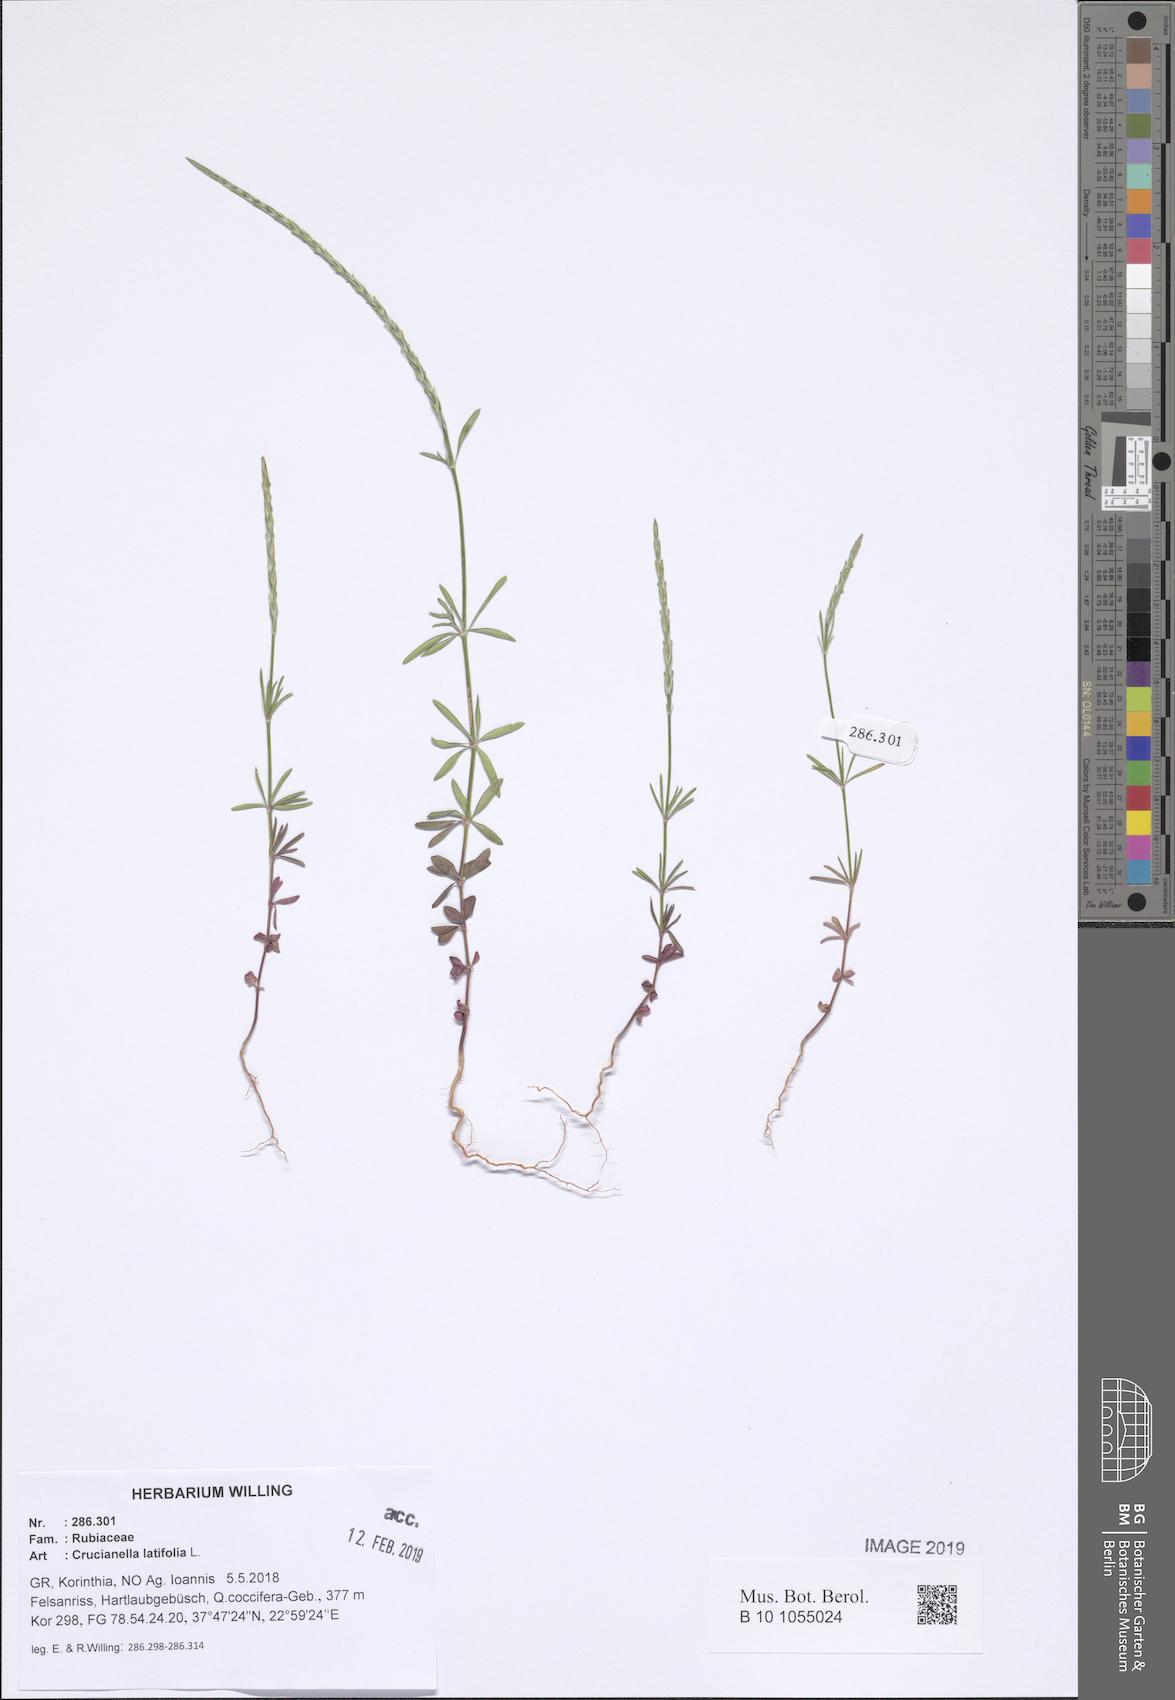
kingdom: Plantae
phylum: Tracheophyta
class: Magnoliopsida
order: Gentianales
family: Rubiaceae
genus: Crucianella
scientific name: Crucianella latifolia
